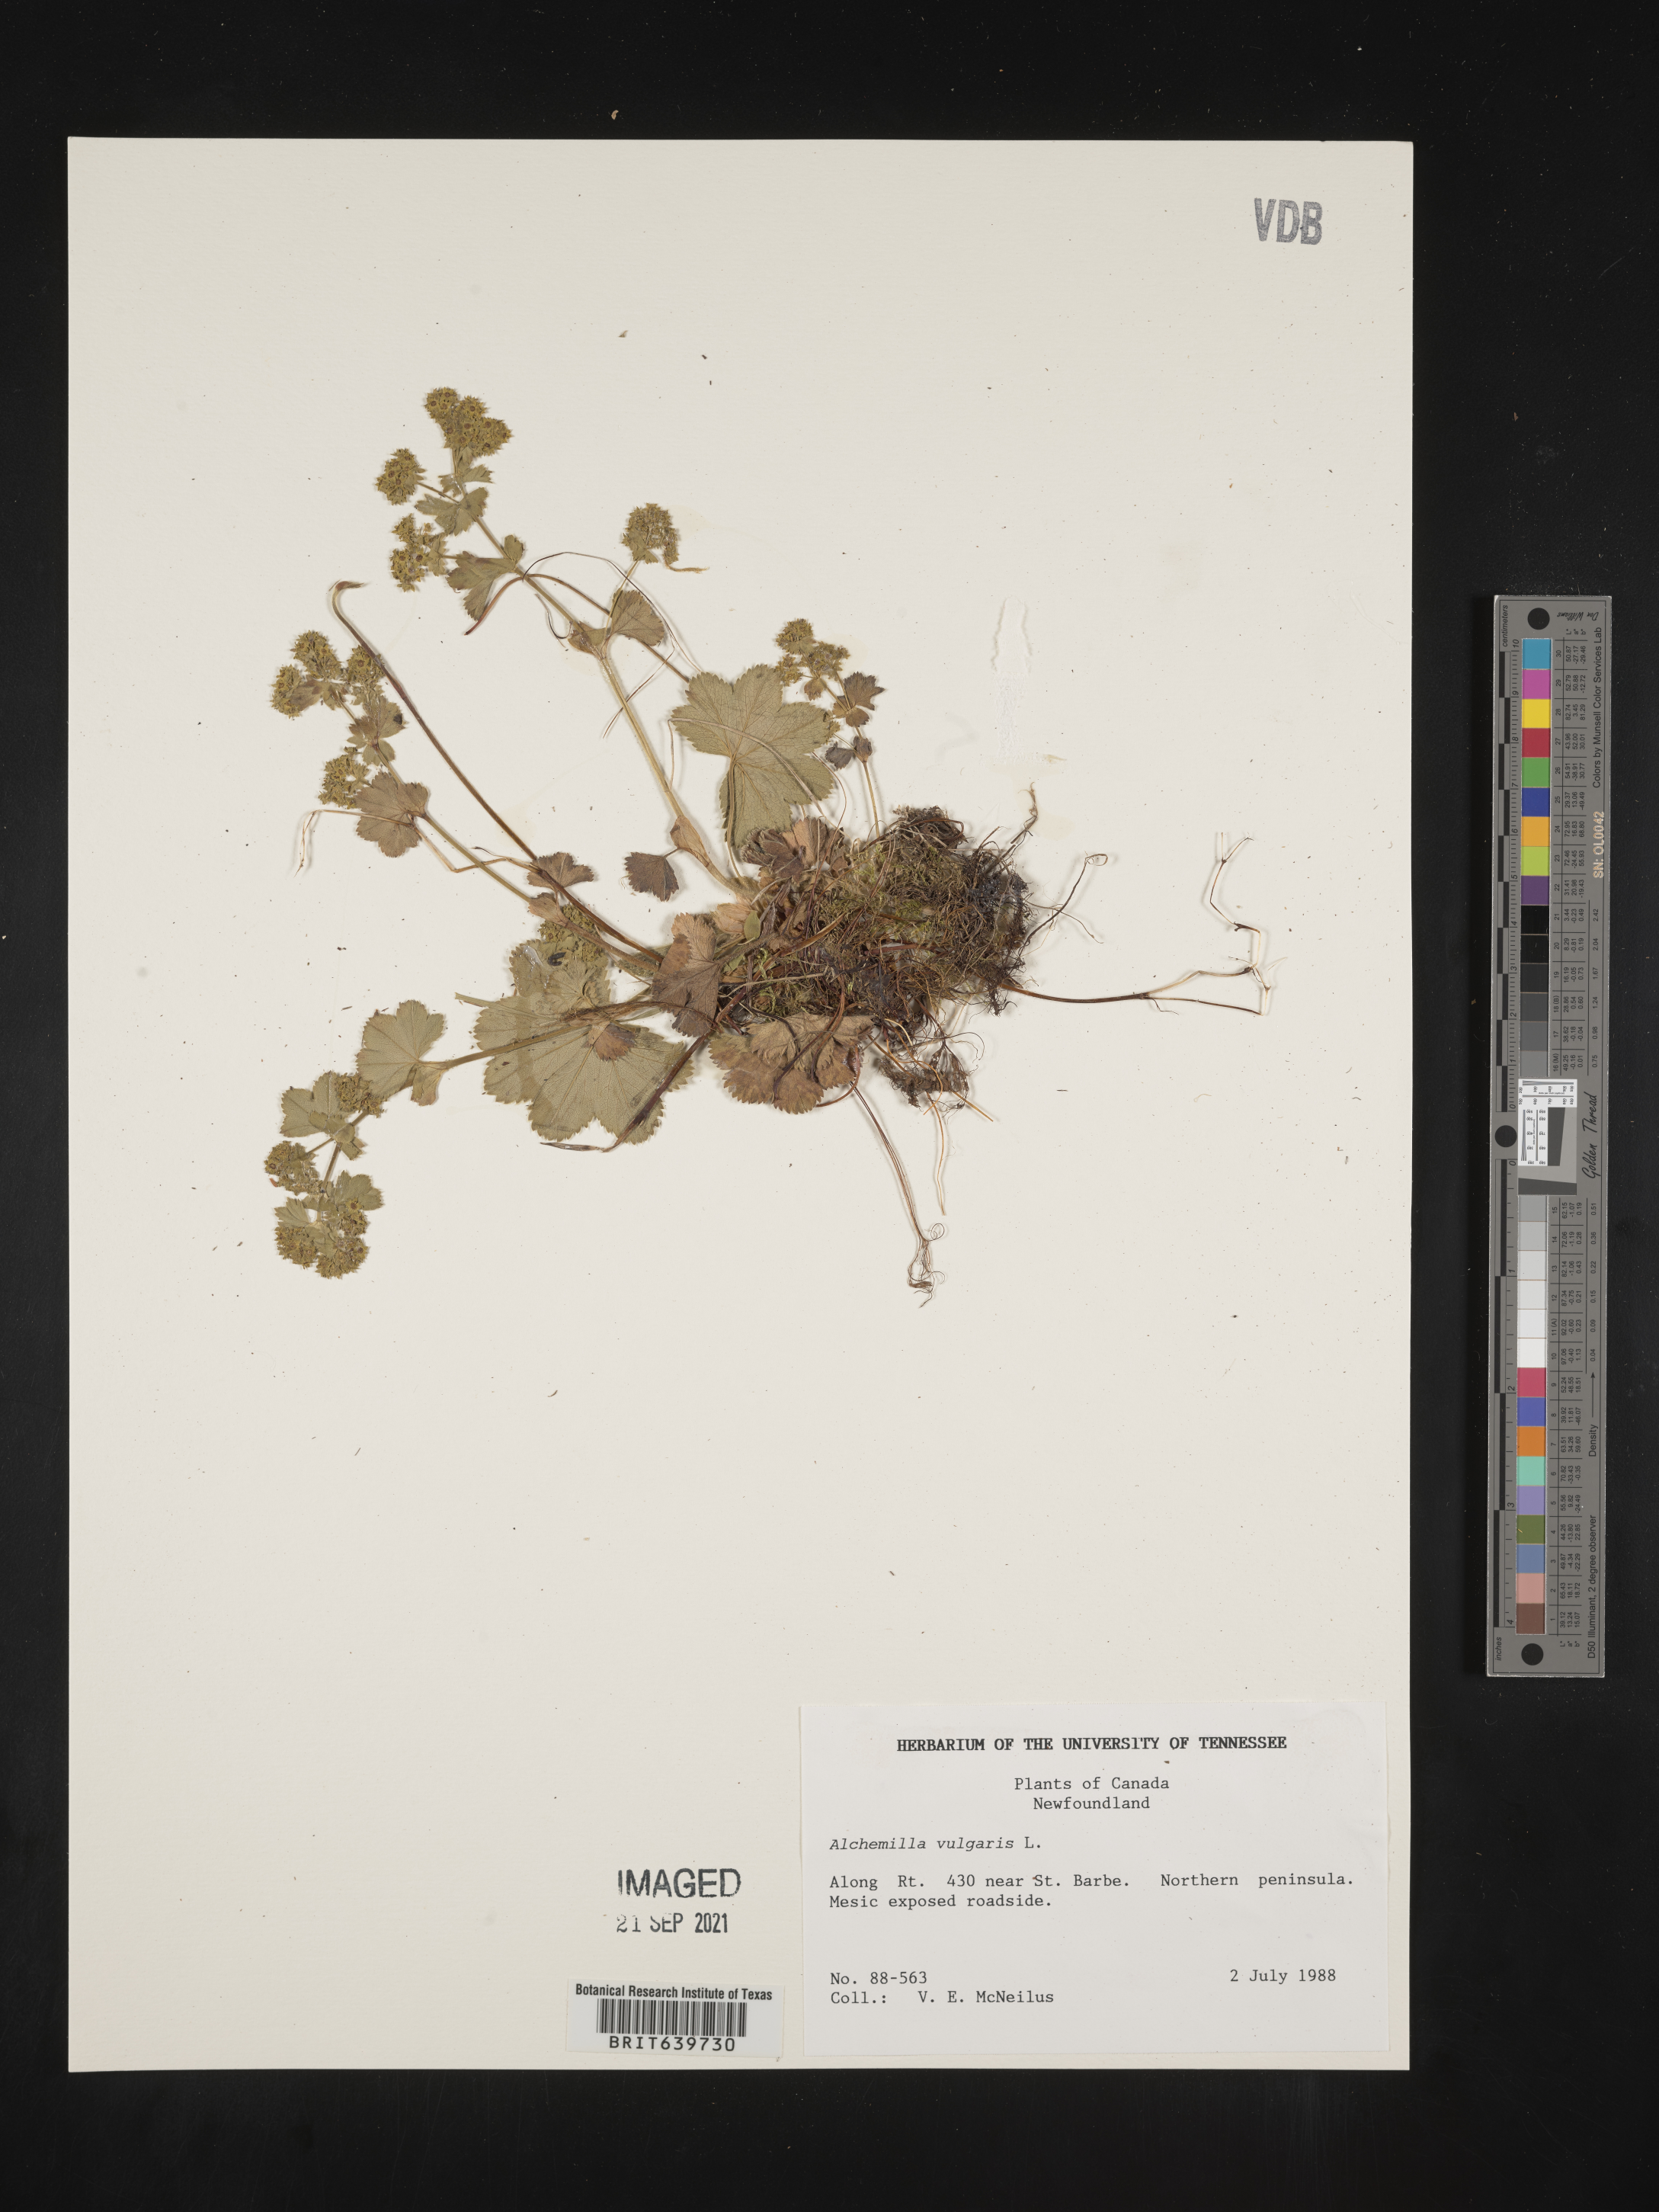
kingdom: Plantae
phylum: Tracheophyta
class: Magnoliopsida
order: Rosales
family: Rosaceae
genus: Alchemilla
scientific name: Alchemilla
